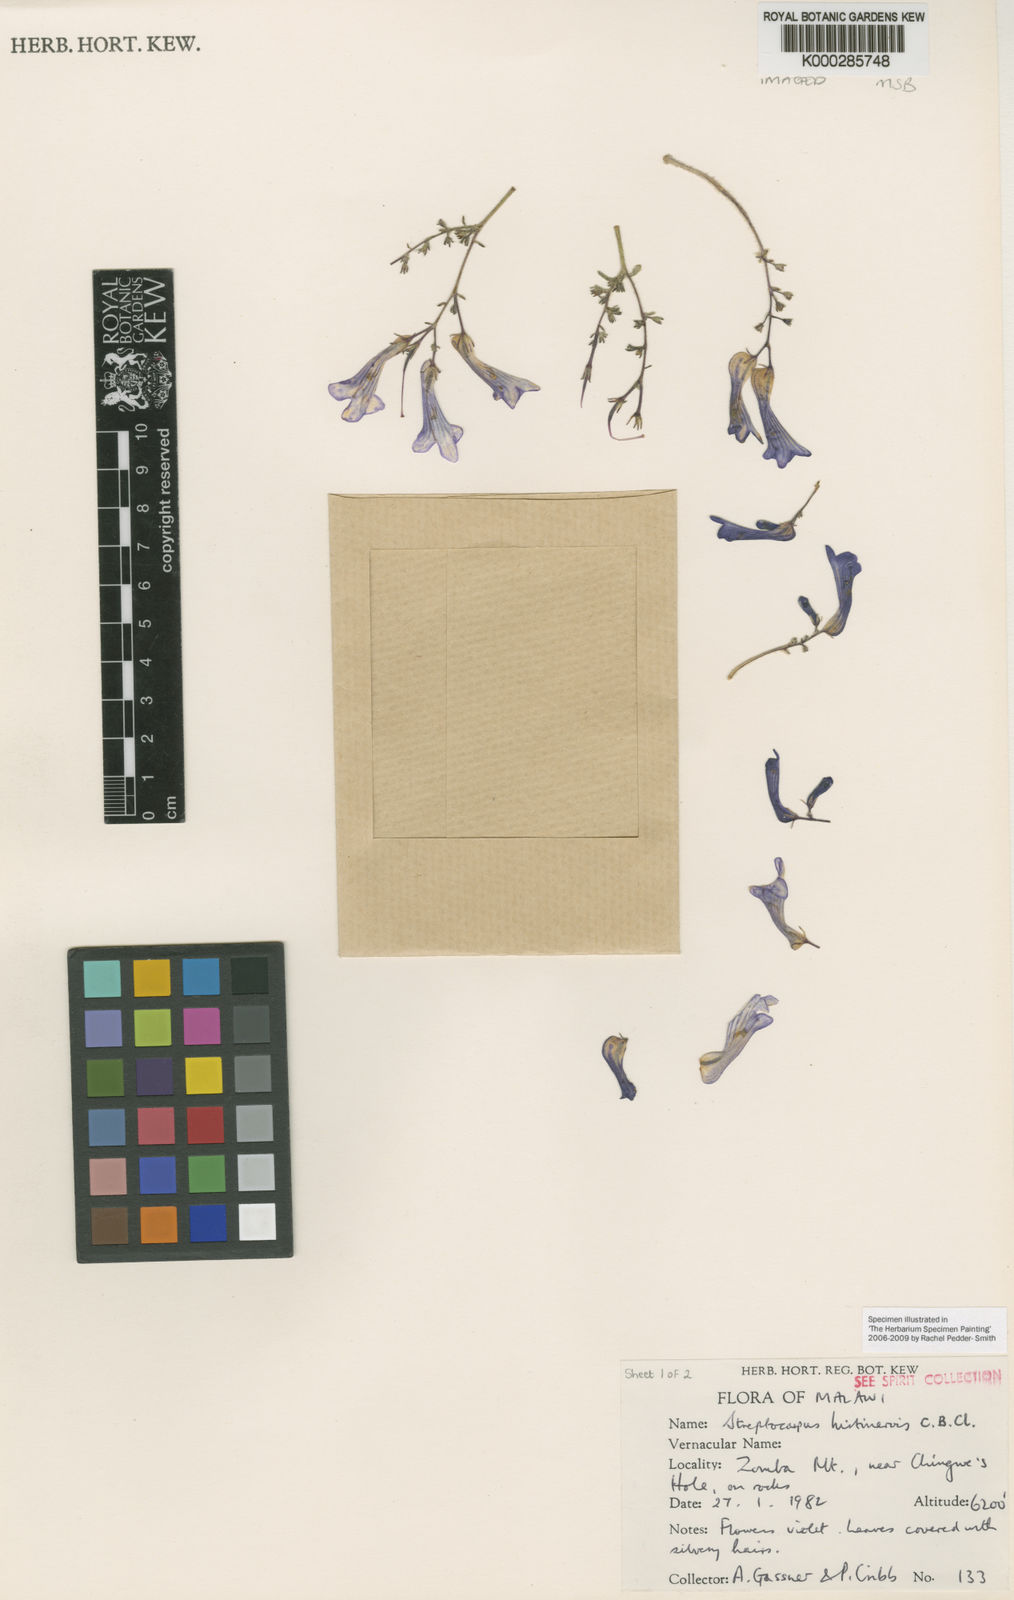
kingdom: Plantae
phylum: Tracheophyta
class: Magnoliopsida
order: Lamiales
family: Gesneriaceae
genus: Streptocarpus
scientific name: Streptocarpus hirtinervis
